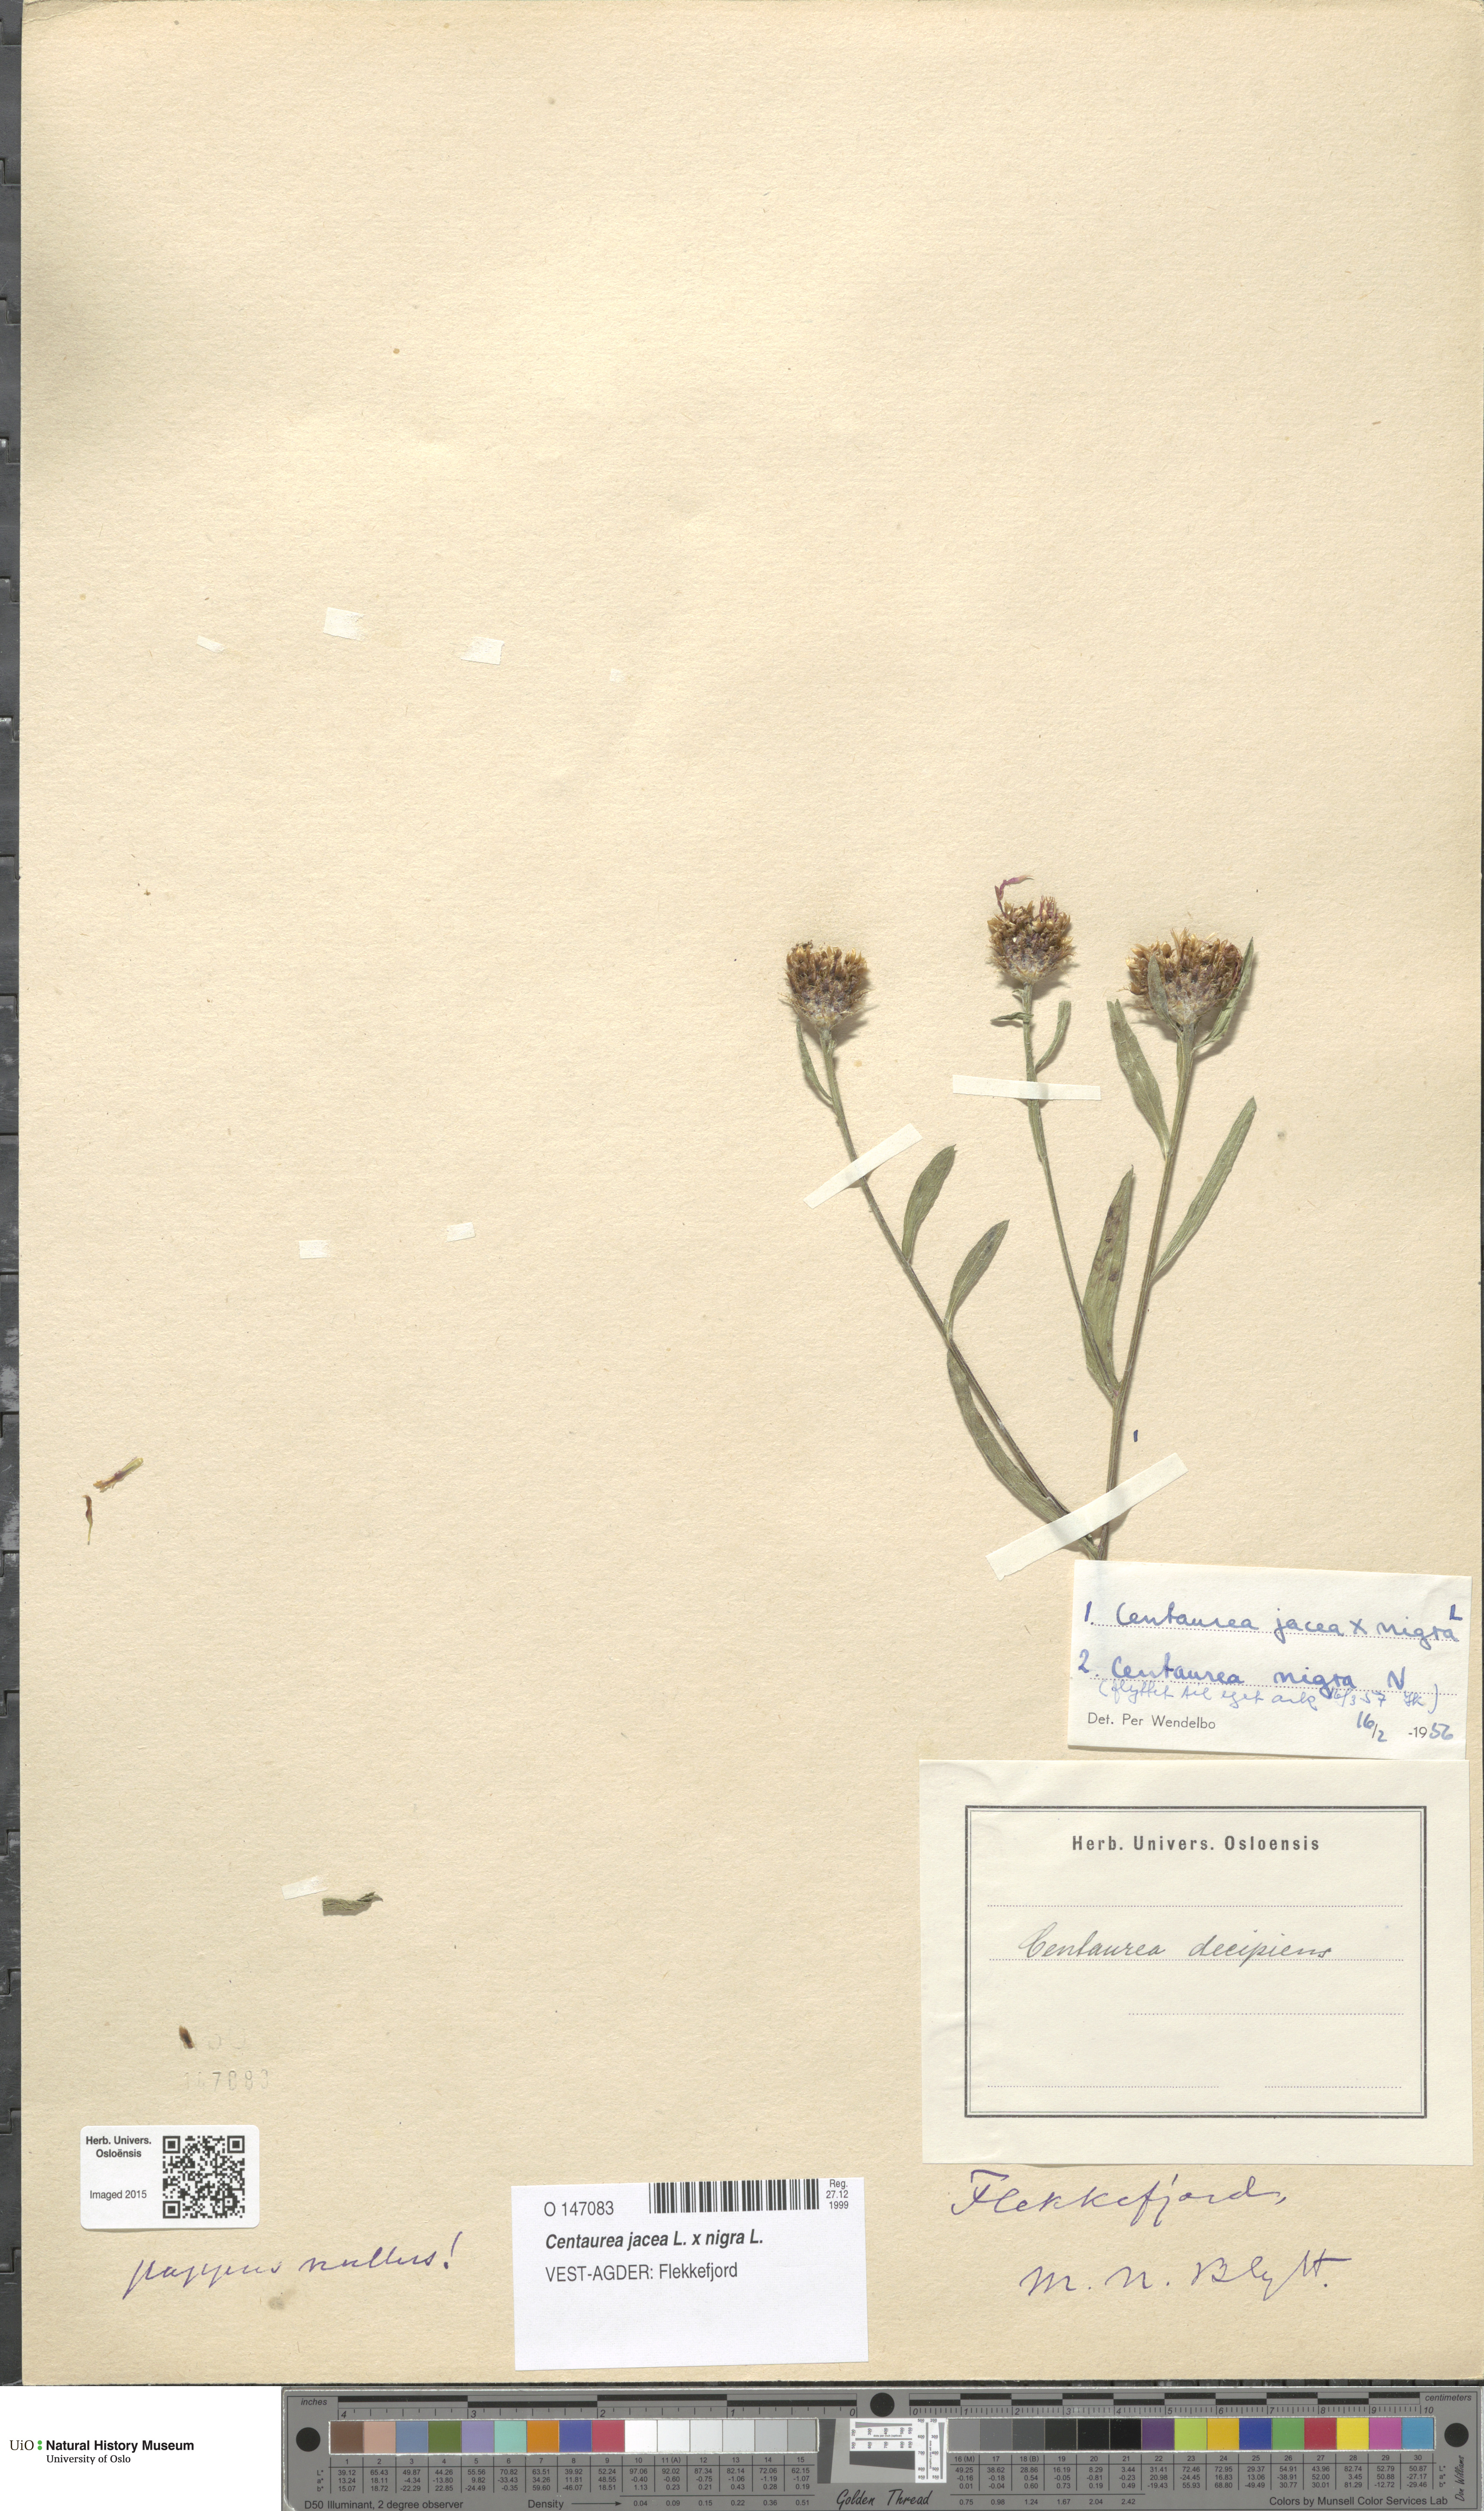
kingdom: Plantae
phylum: Tracheophyta
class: Magnoliopsida
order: Asterales
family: Asteraceae
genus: Centaurea
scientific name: Centaurea
